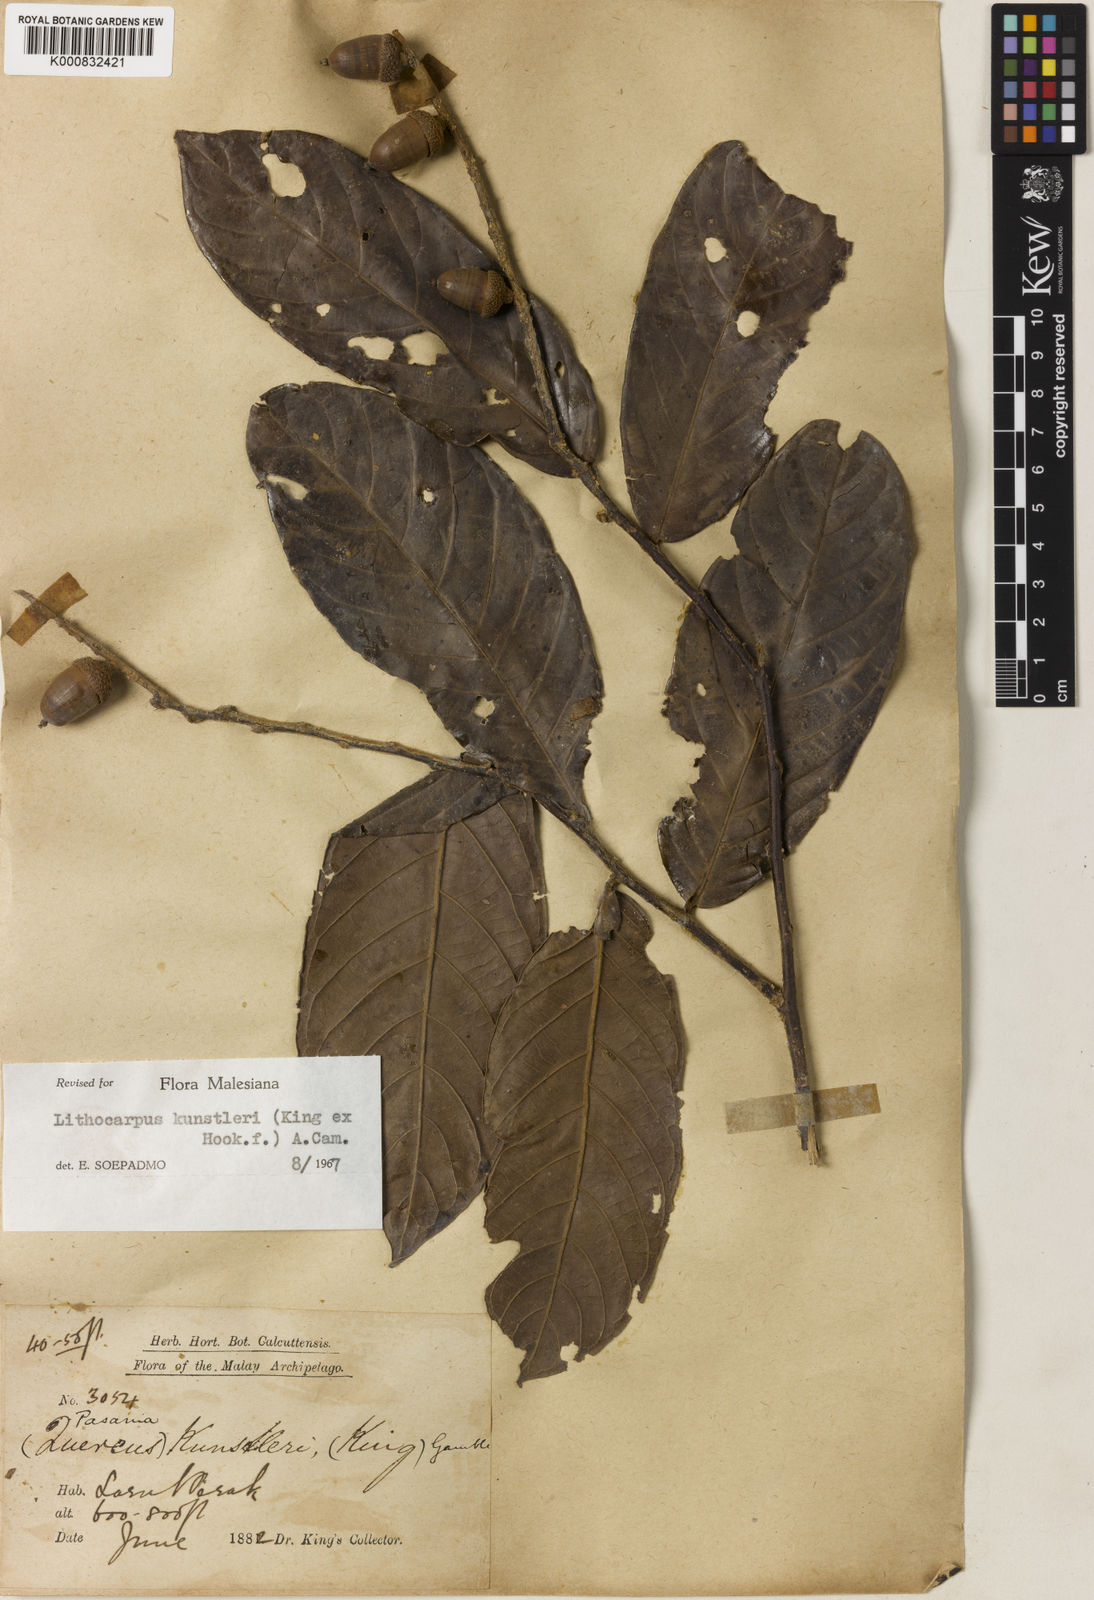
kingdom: Plantae
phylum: Tracheophyta
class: Magnoliopsida
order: Fagales
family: Fagaceae
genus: Lithocarpus
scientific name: Lithocarpus kunstleri
